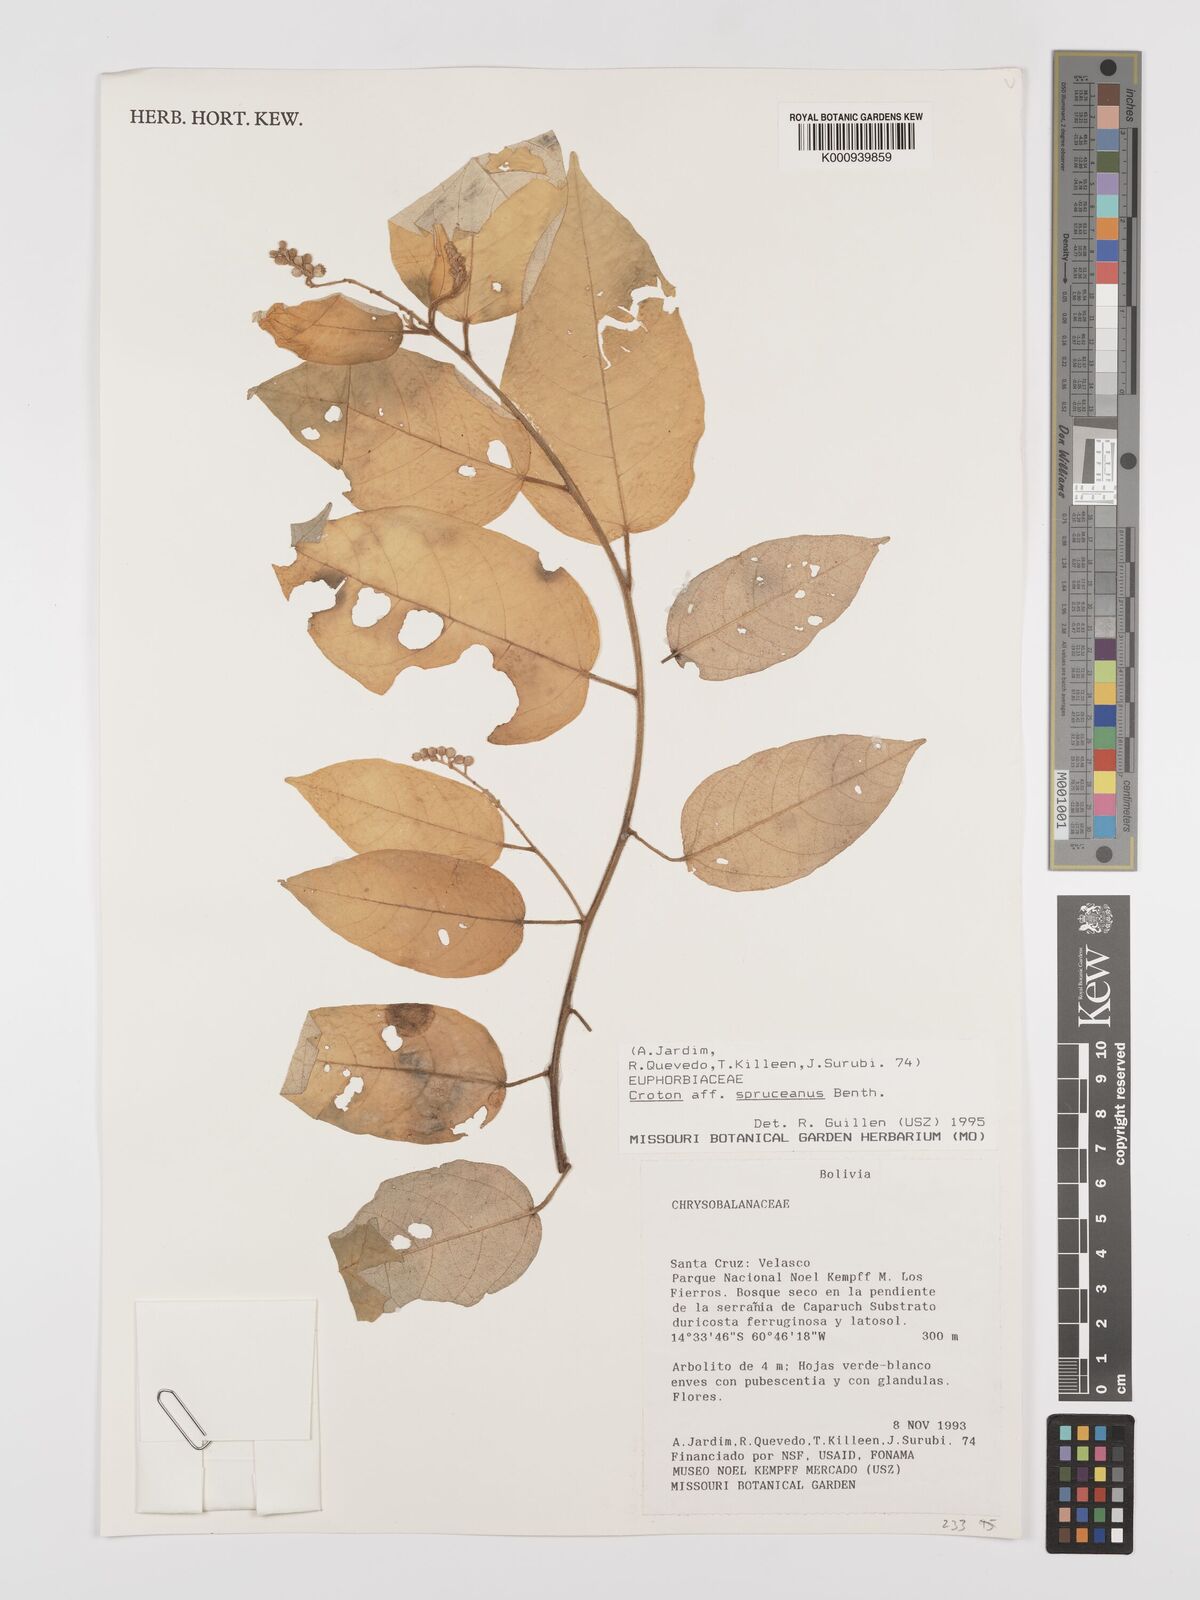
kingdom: Plantae
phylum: Tracheophyta
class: Magnoliopsida
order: Malpighiales
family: Euphorbiaceae
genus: Croton
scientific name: Croton spruceanus
